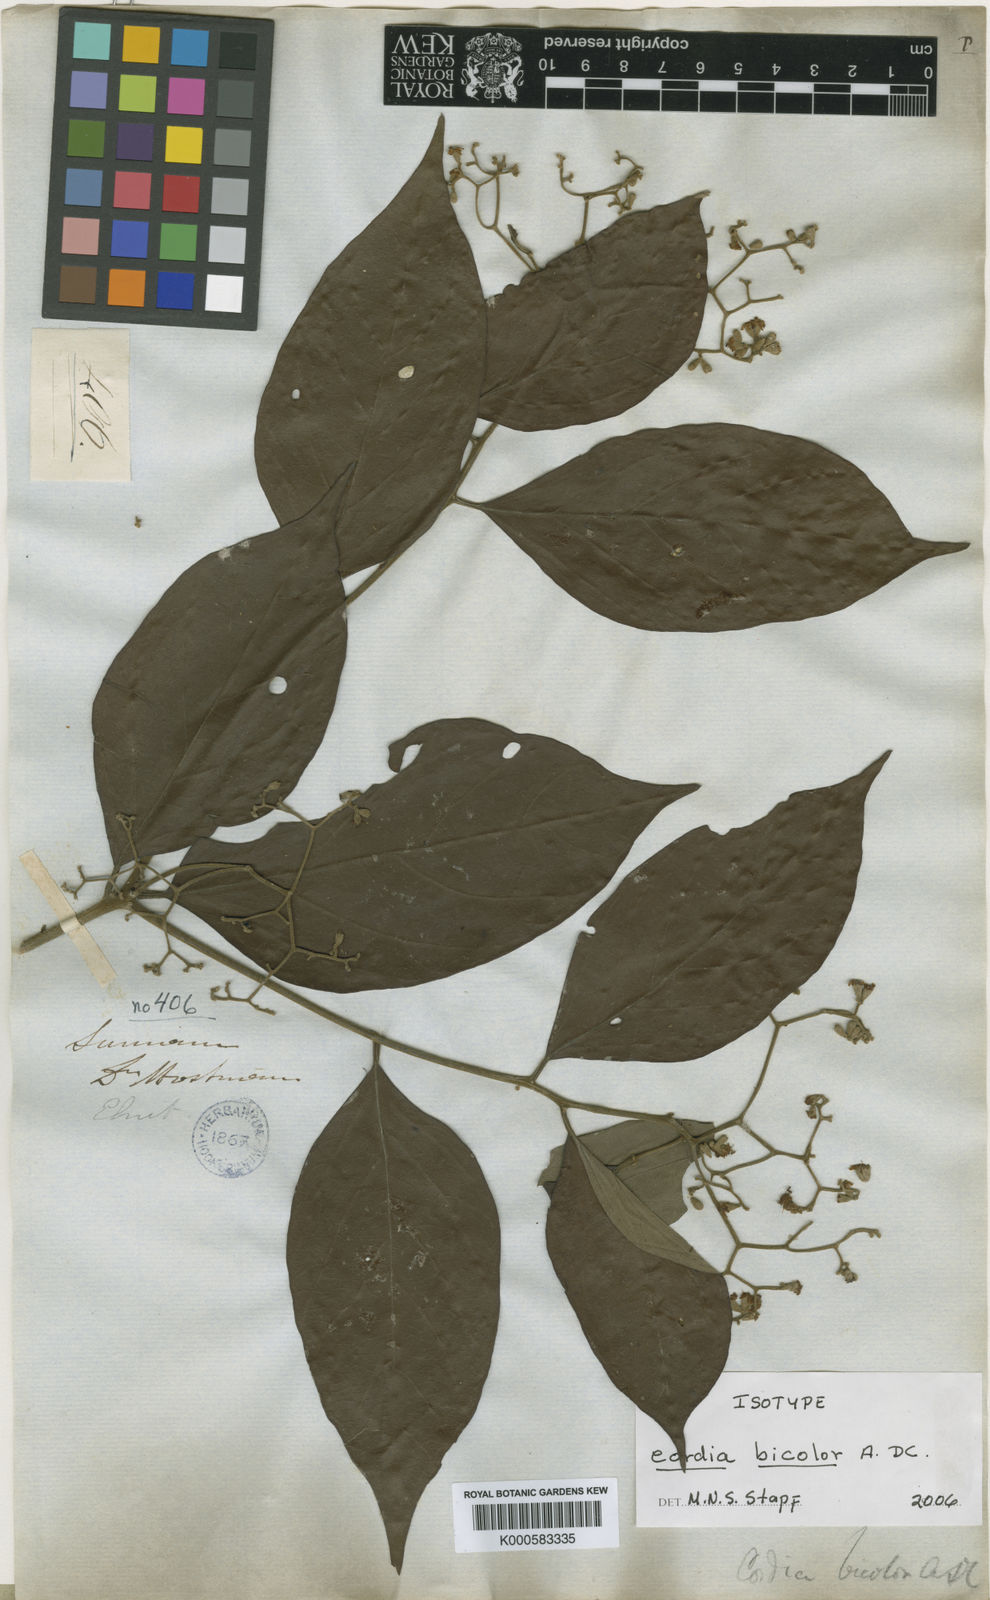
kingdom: Plantae
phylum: Tracheophyta
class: Magnoliopsida
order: Boraginales
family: Cordiaceae
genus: Cordia
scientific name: Cordia bicolor
